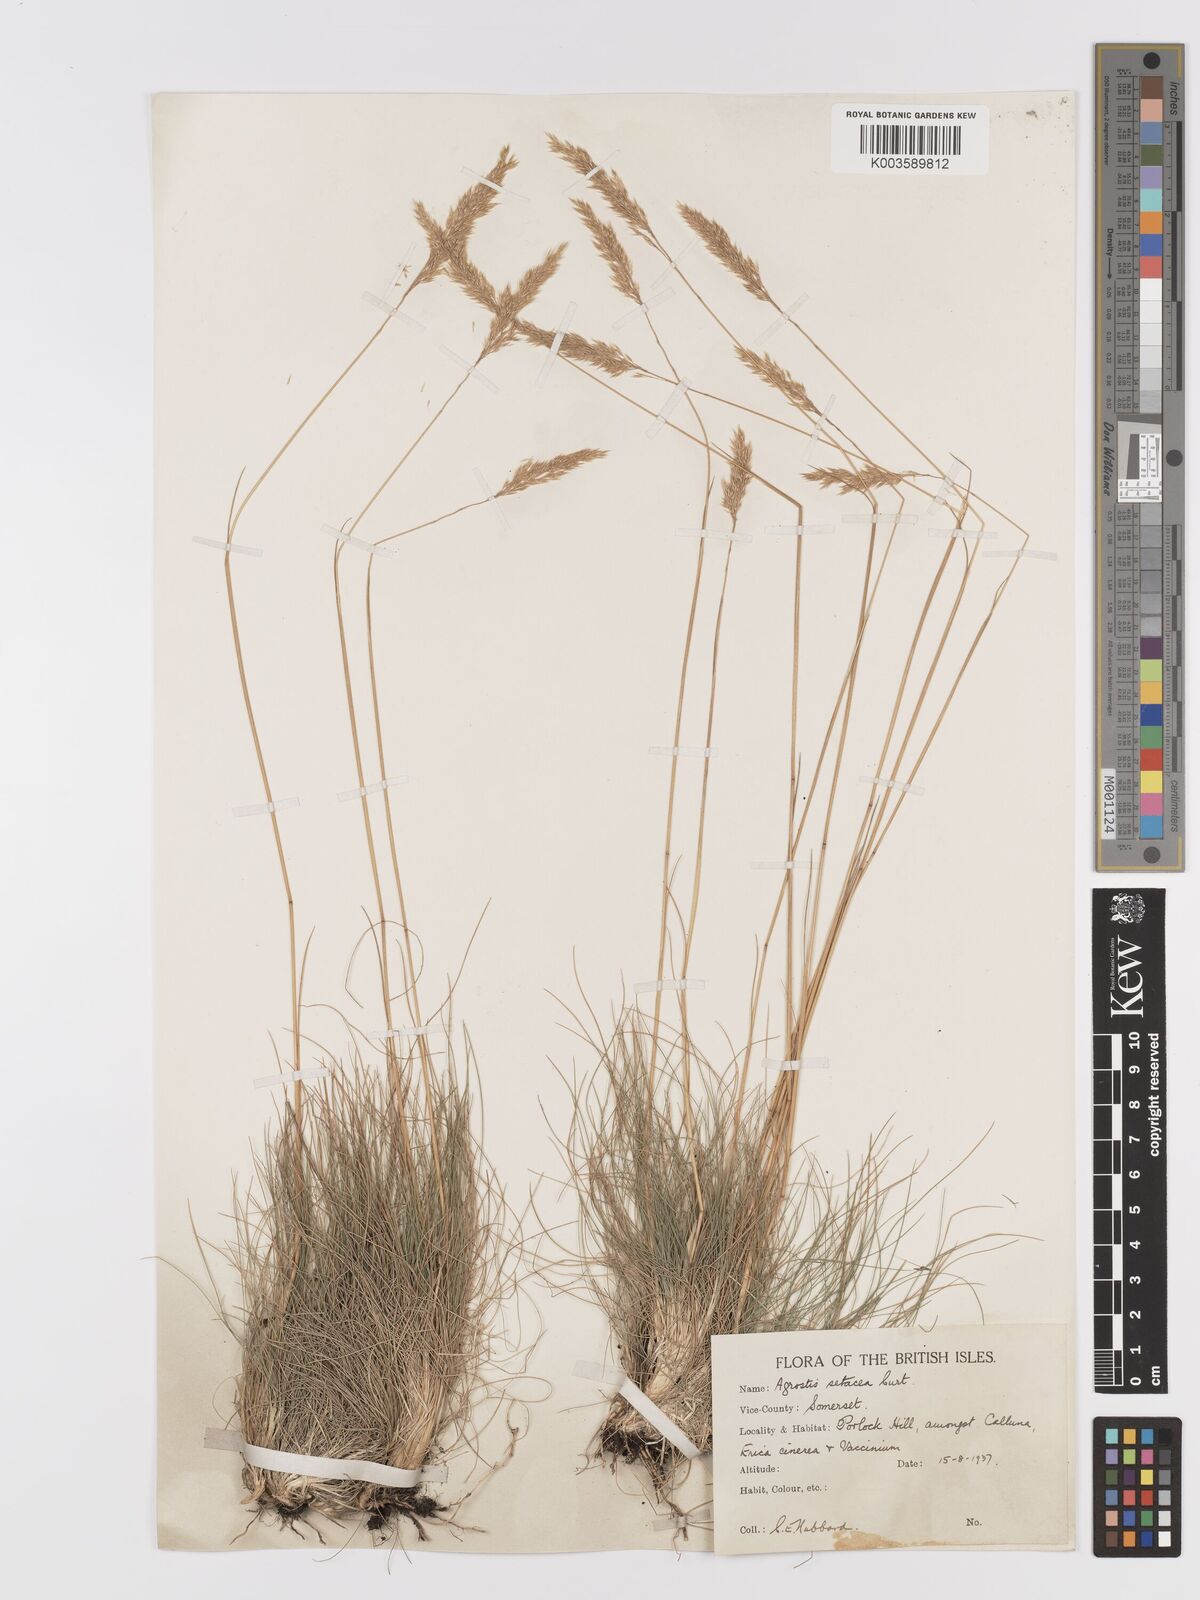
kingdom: Plantae
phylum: Tracheophyta
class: Liliopsida
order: Poales
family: Poaceae
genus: Alpagrostis
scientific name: Alpagrostis setacea
